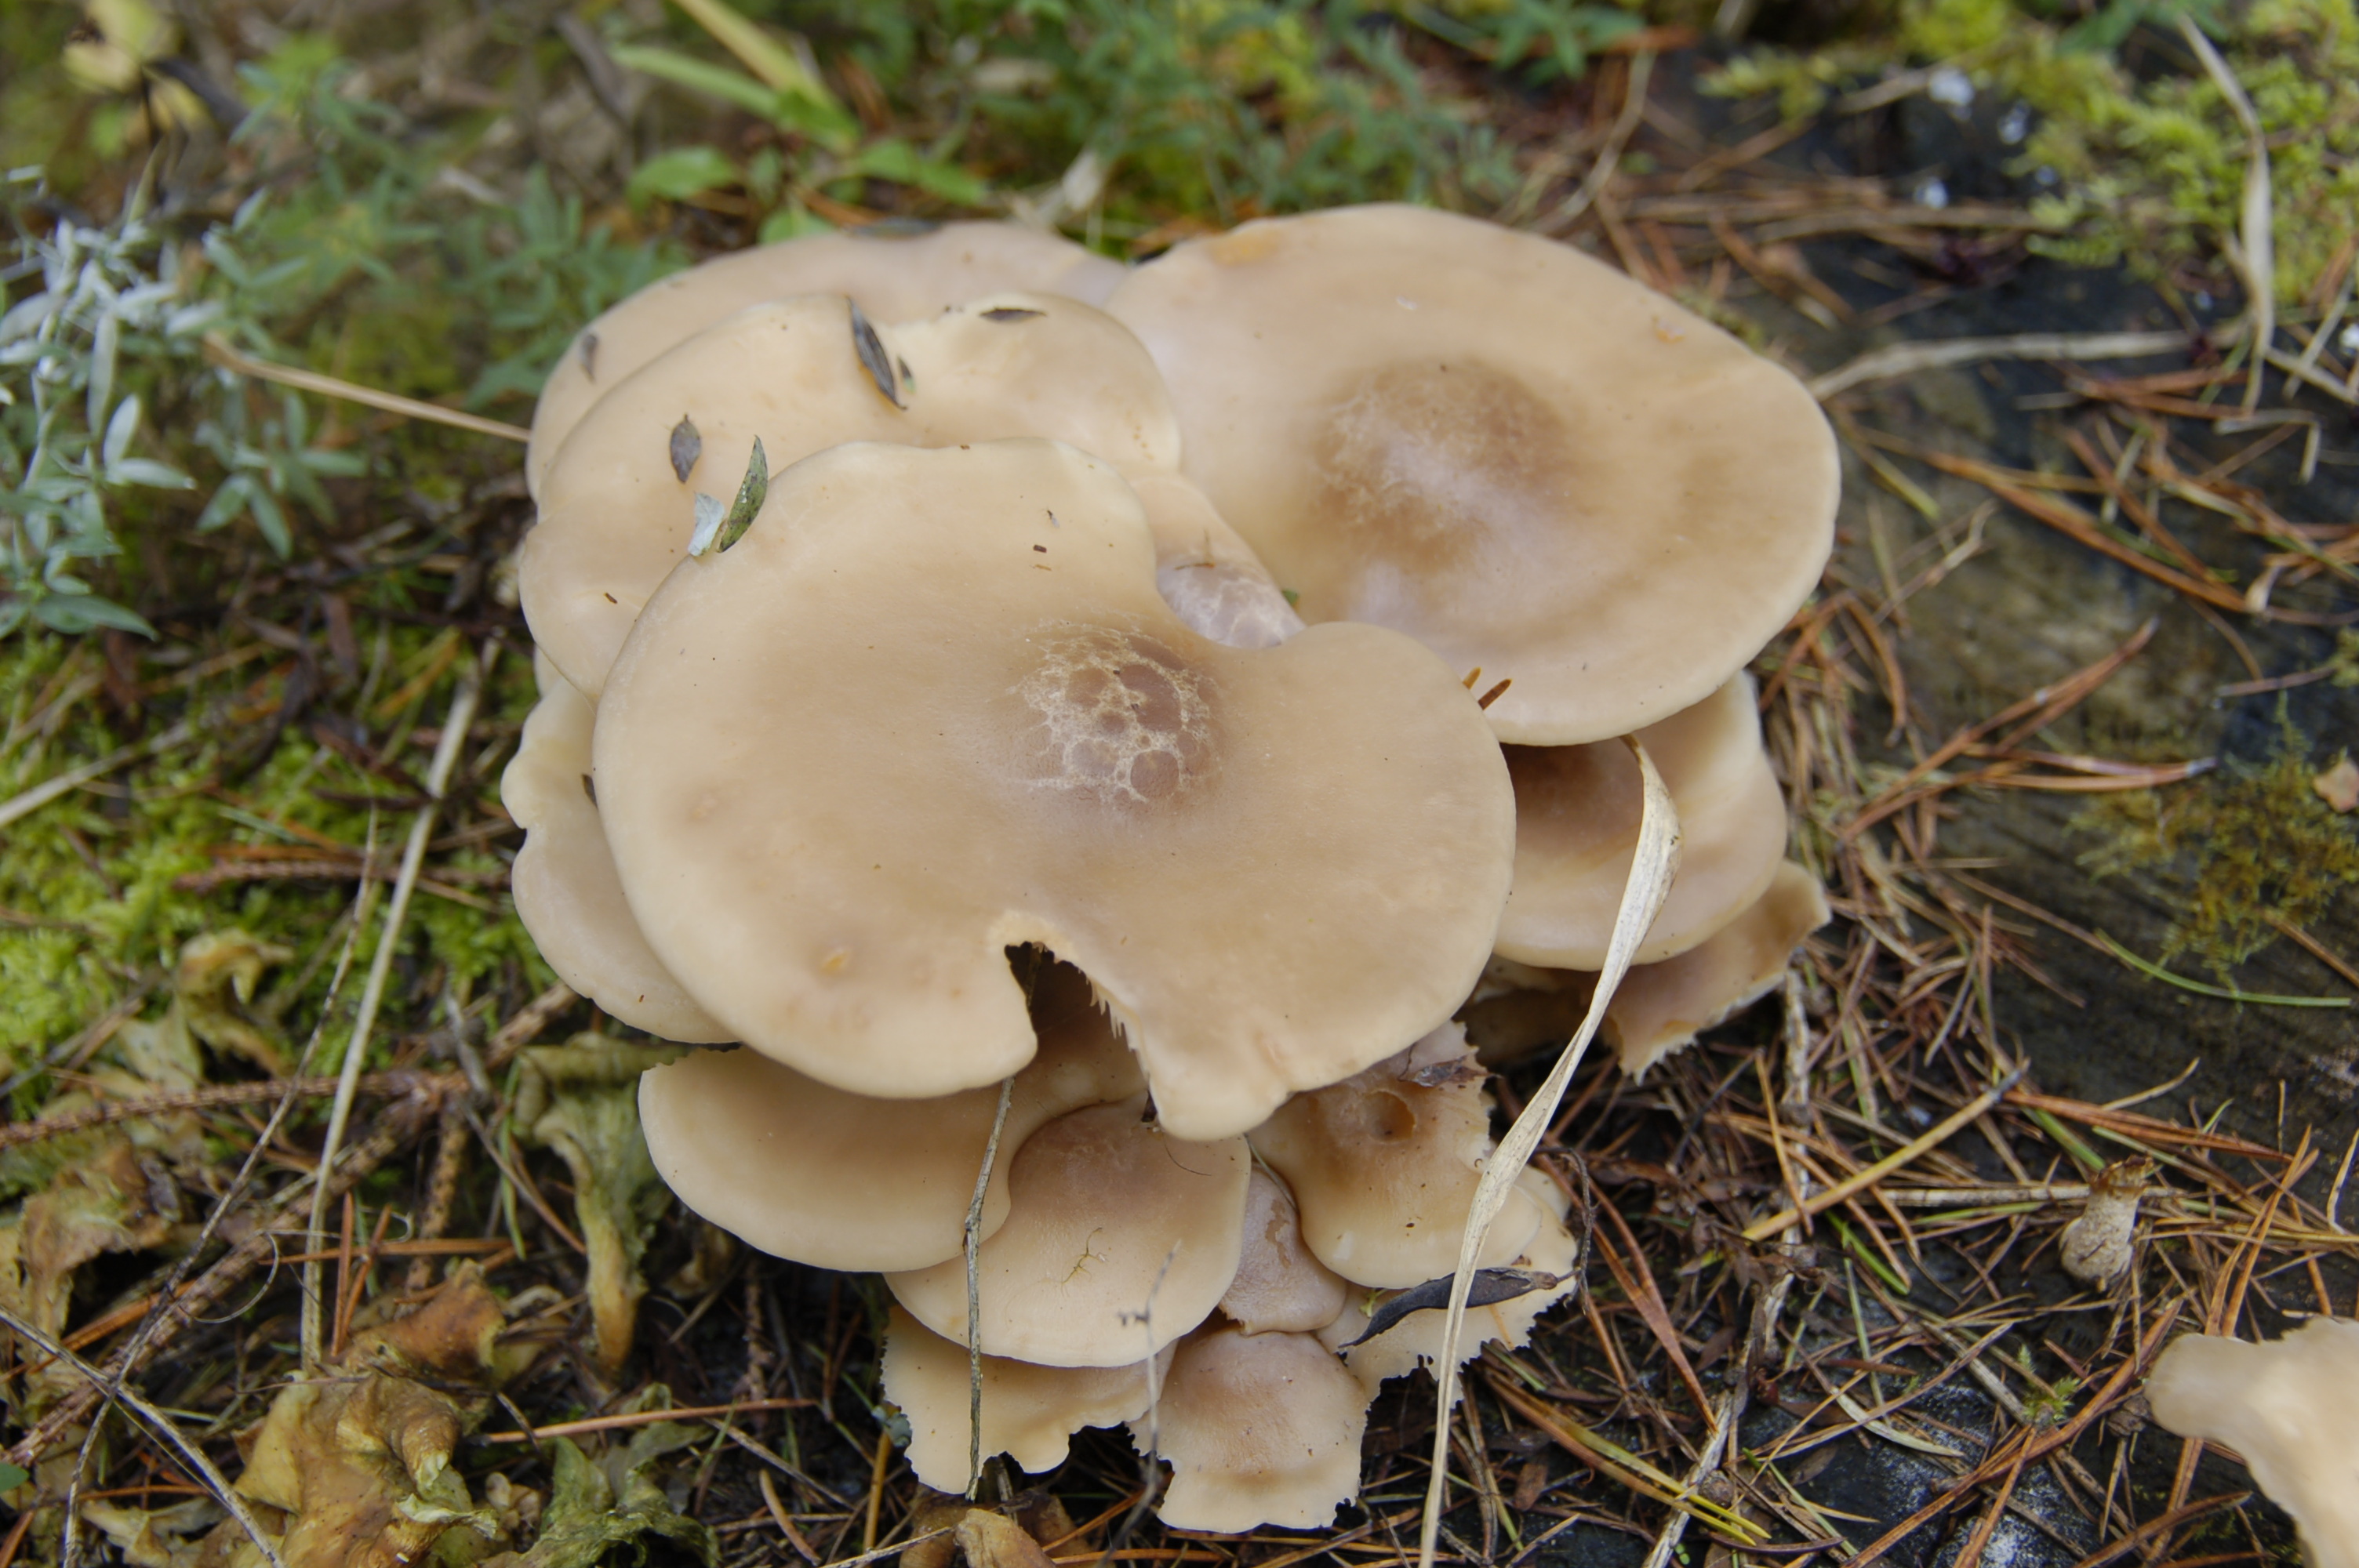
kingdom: Fungi
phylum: Basidiomycota
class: Agaricomycetes
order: Agaricales
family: Lyophyllaceae
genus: Hypsizygus
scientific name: Hypsizygus tessulatus
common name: Beech mushroom
